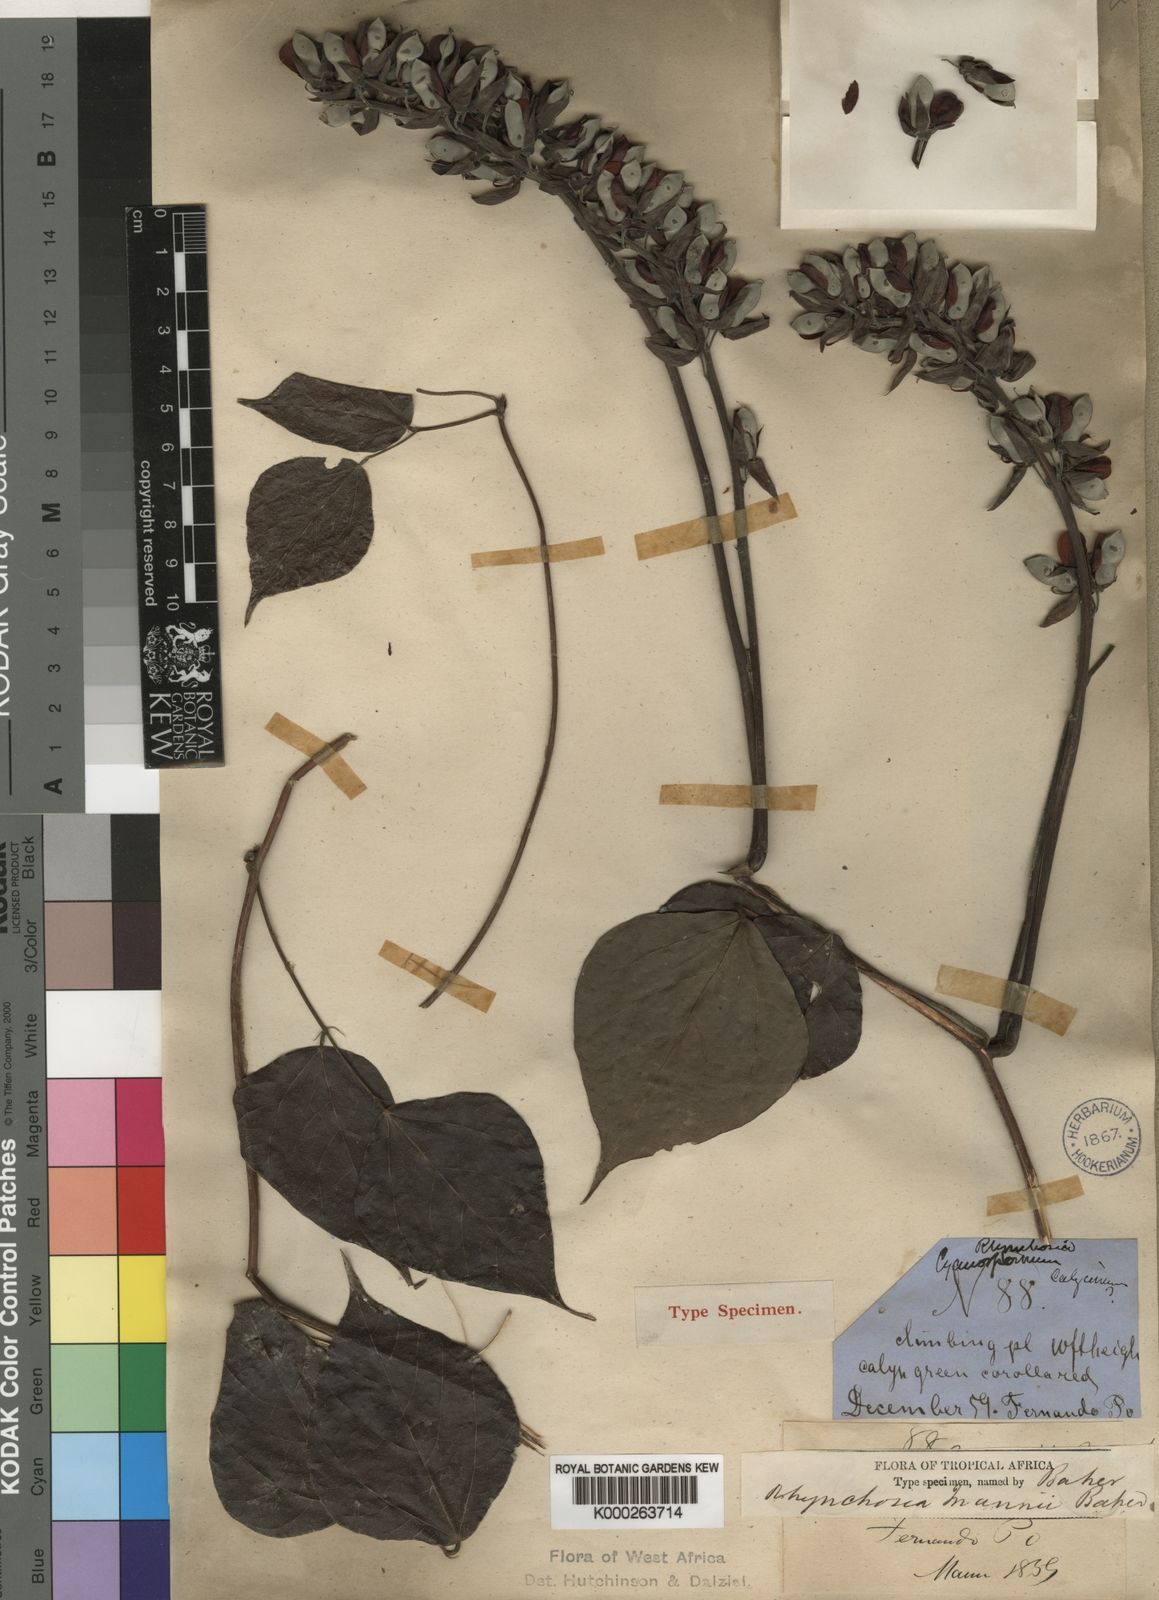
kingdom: Plantae
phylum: Tracheophyta
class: Magnoliopsida
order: Fabales
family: Fabaceae
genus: Rhynchosia
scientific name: Rhynchosia mannii
